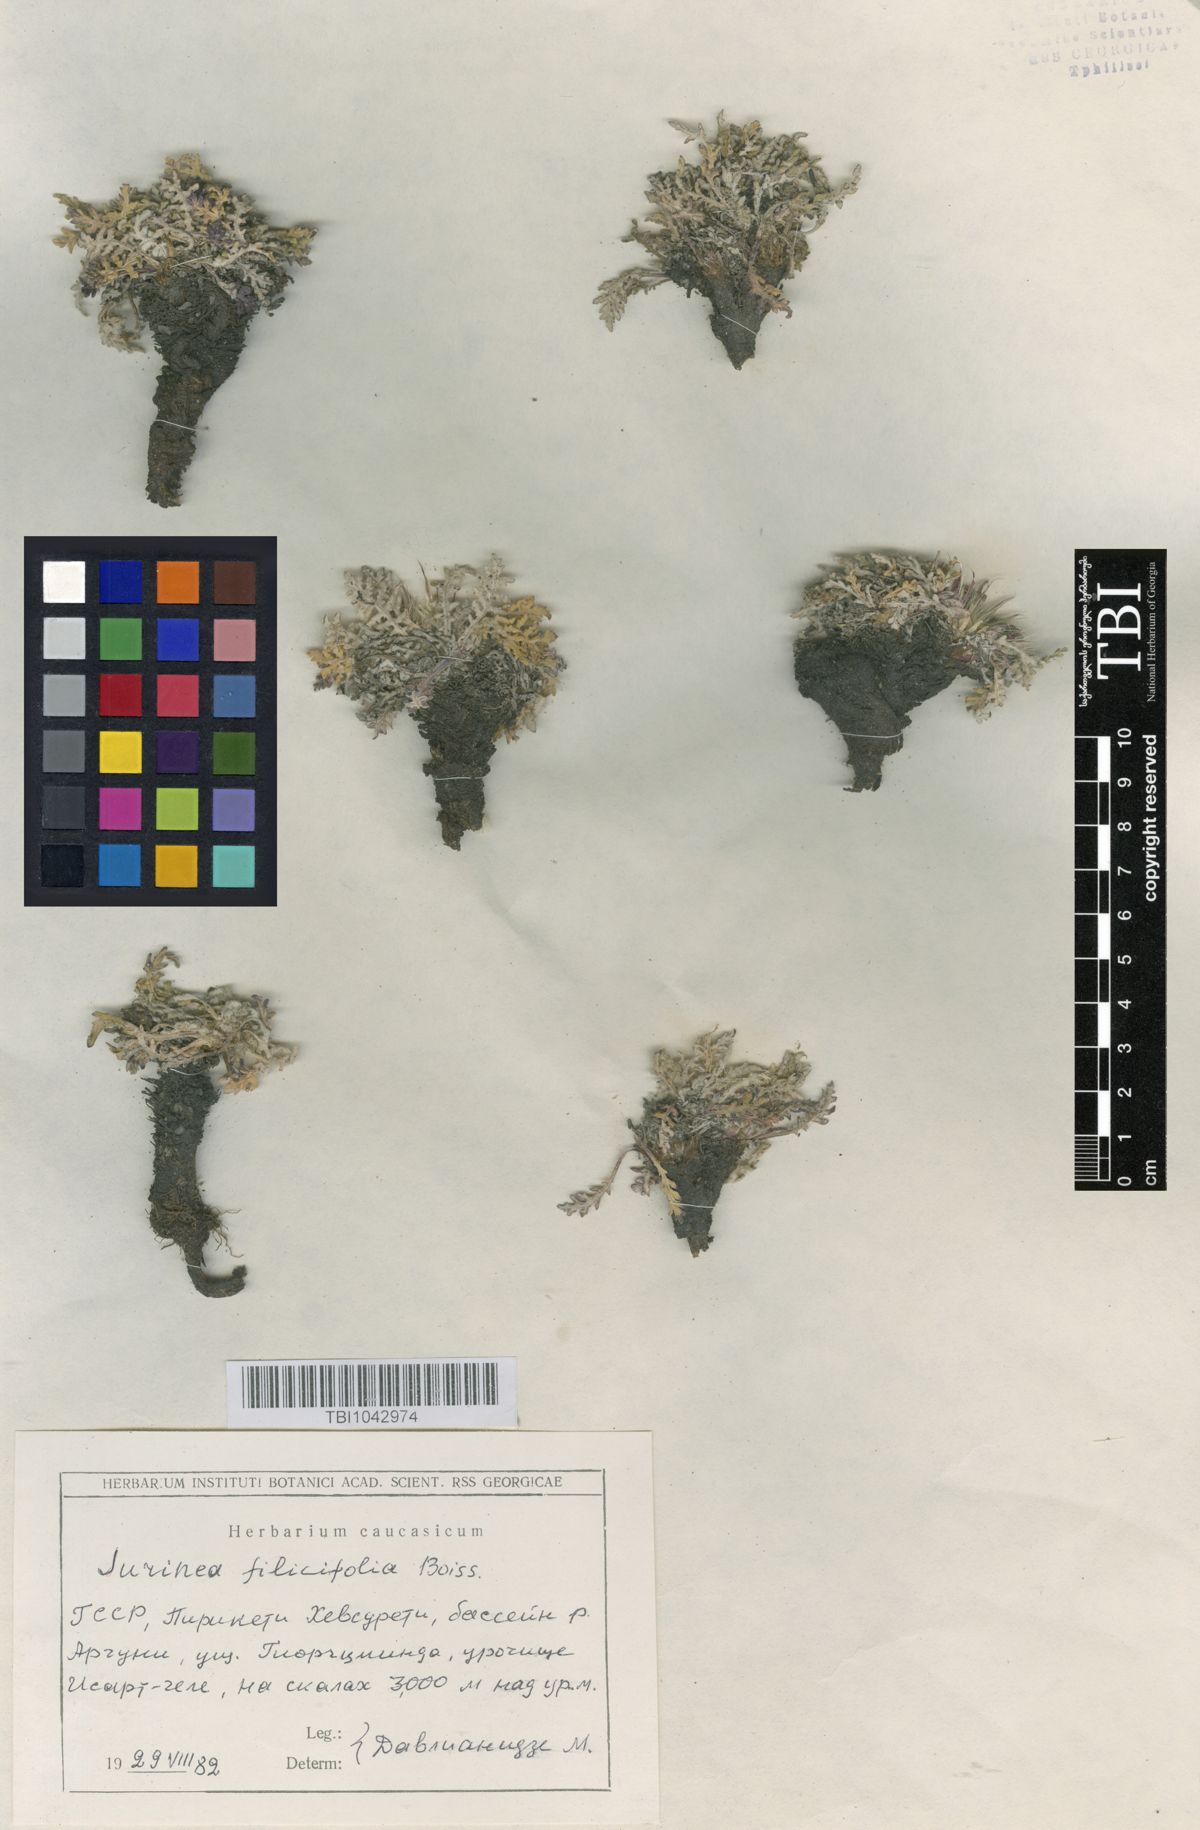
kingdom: Plantae
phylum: Tracheophyta
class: Magnoliopsida
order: Asterales
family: Asteraceae
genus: Jurinea
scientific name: Jurinea filicifolia
